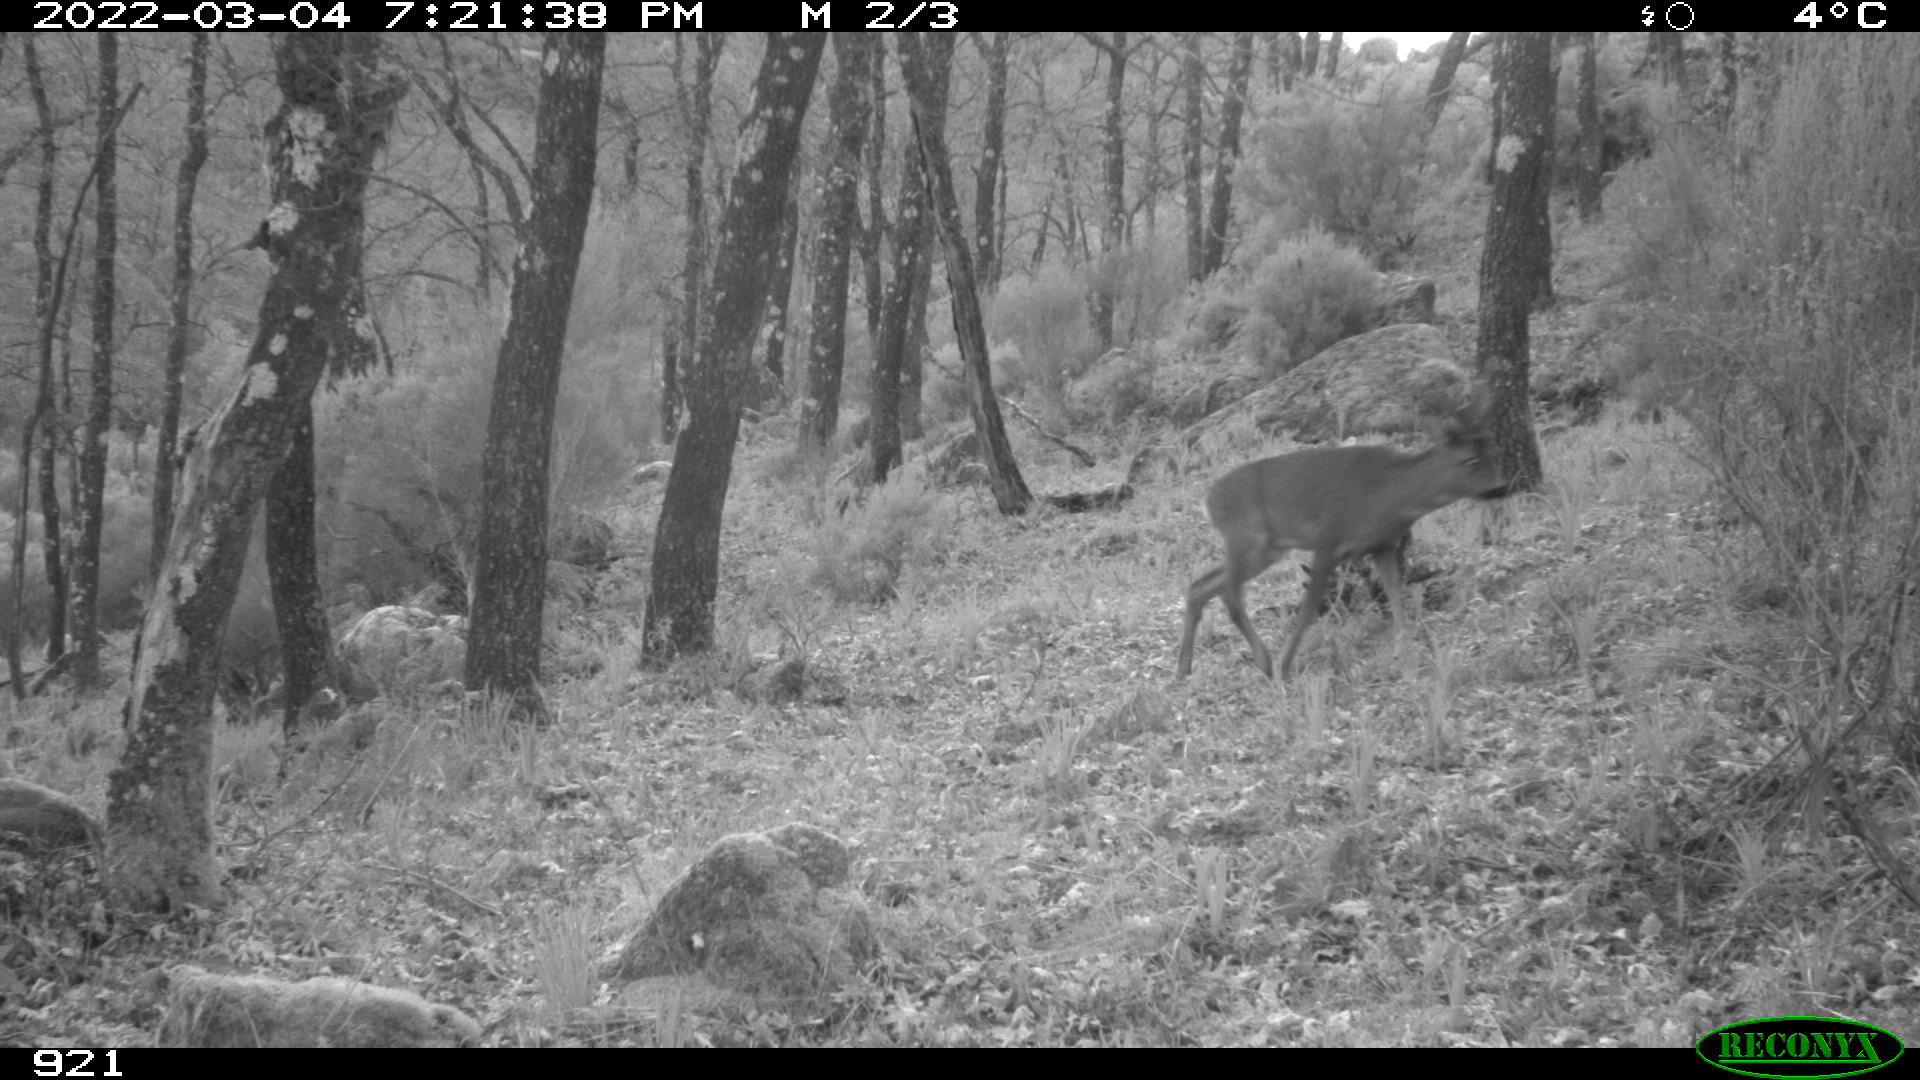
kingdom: Animalia
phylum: Chordata
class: Mammalia
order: Artiodactyla
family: Cervidae
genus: Capreolus
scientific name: Capreolus capreolus
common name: Western roe deer
